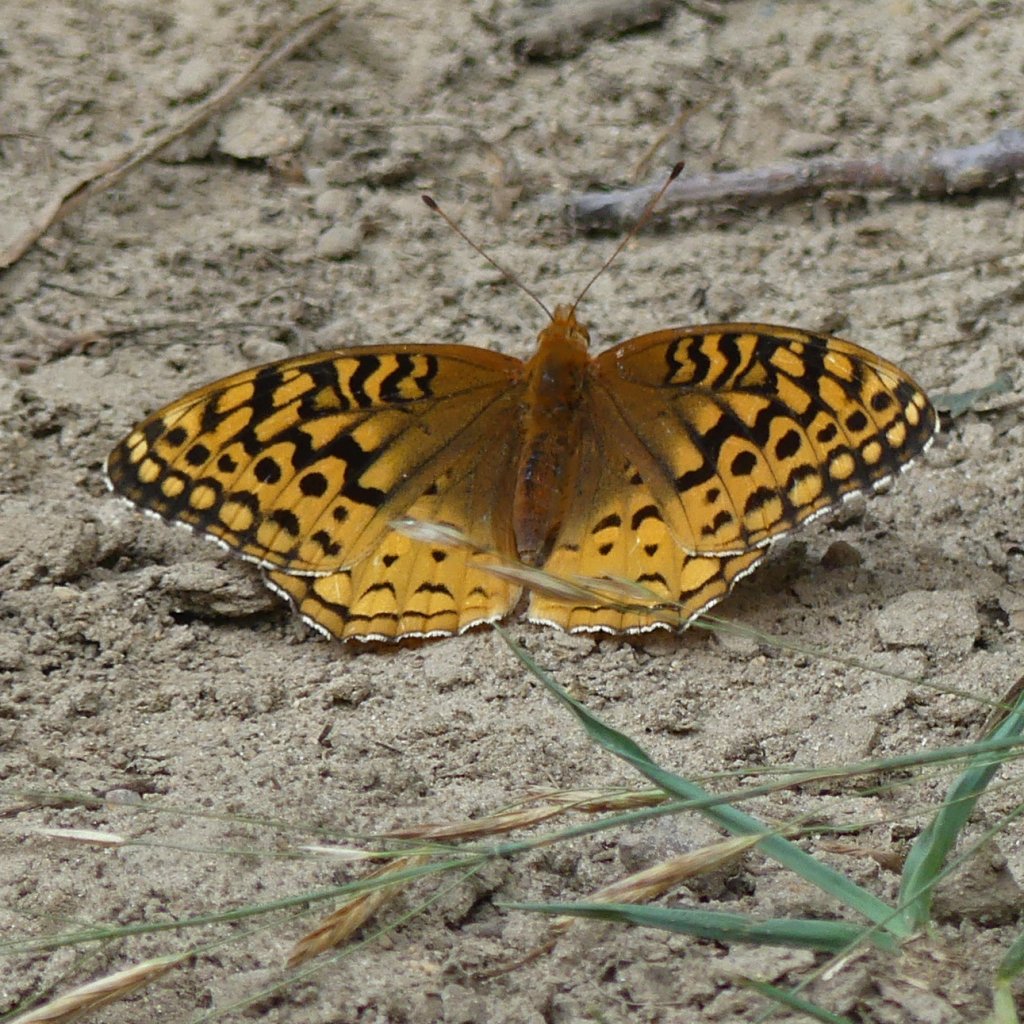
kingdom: Animalia
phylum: Arthropoda
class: Insecta
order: Lepidoptera
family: Nymphalidae
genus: Speyeria
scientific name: Speyeria
